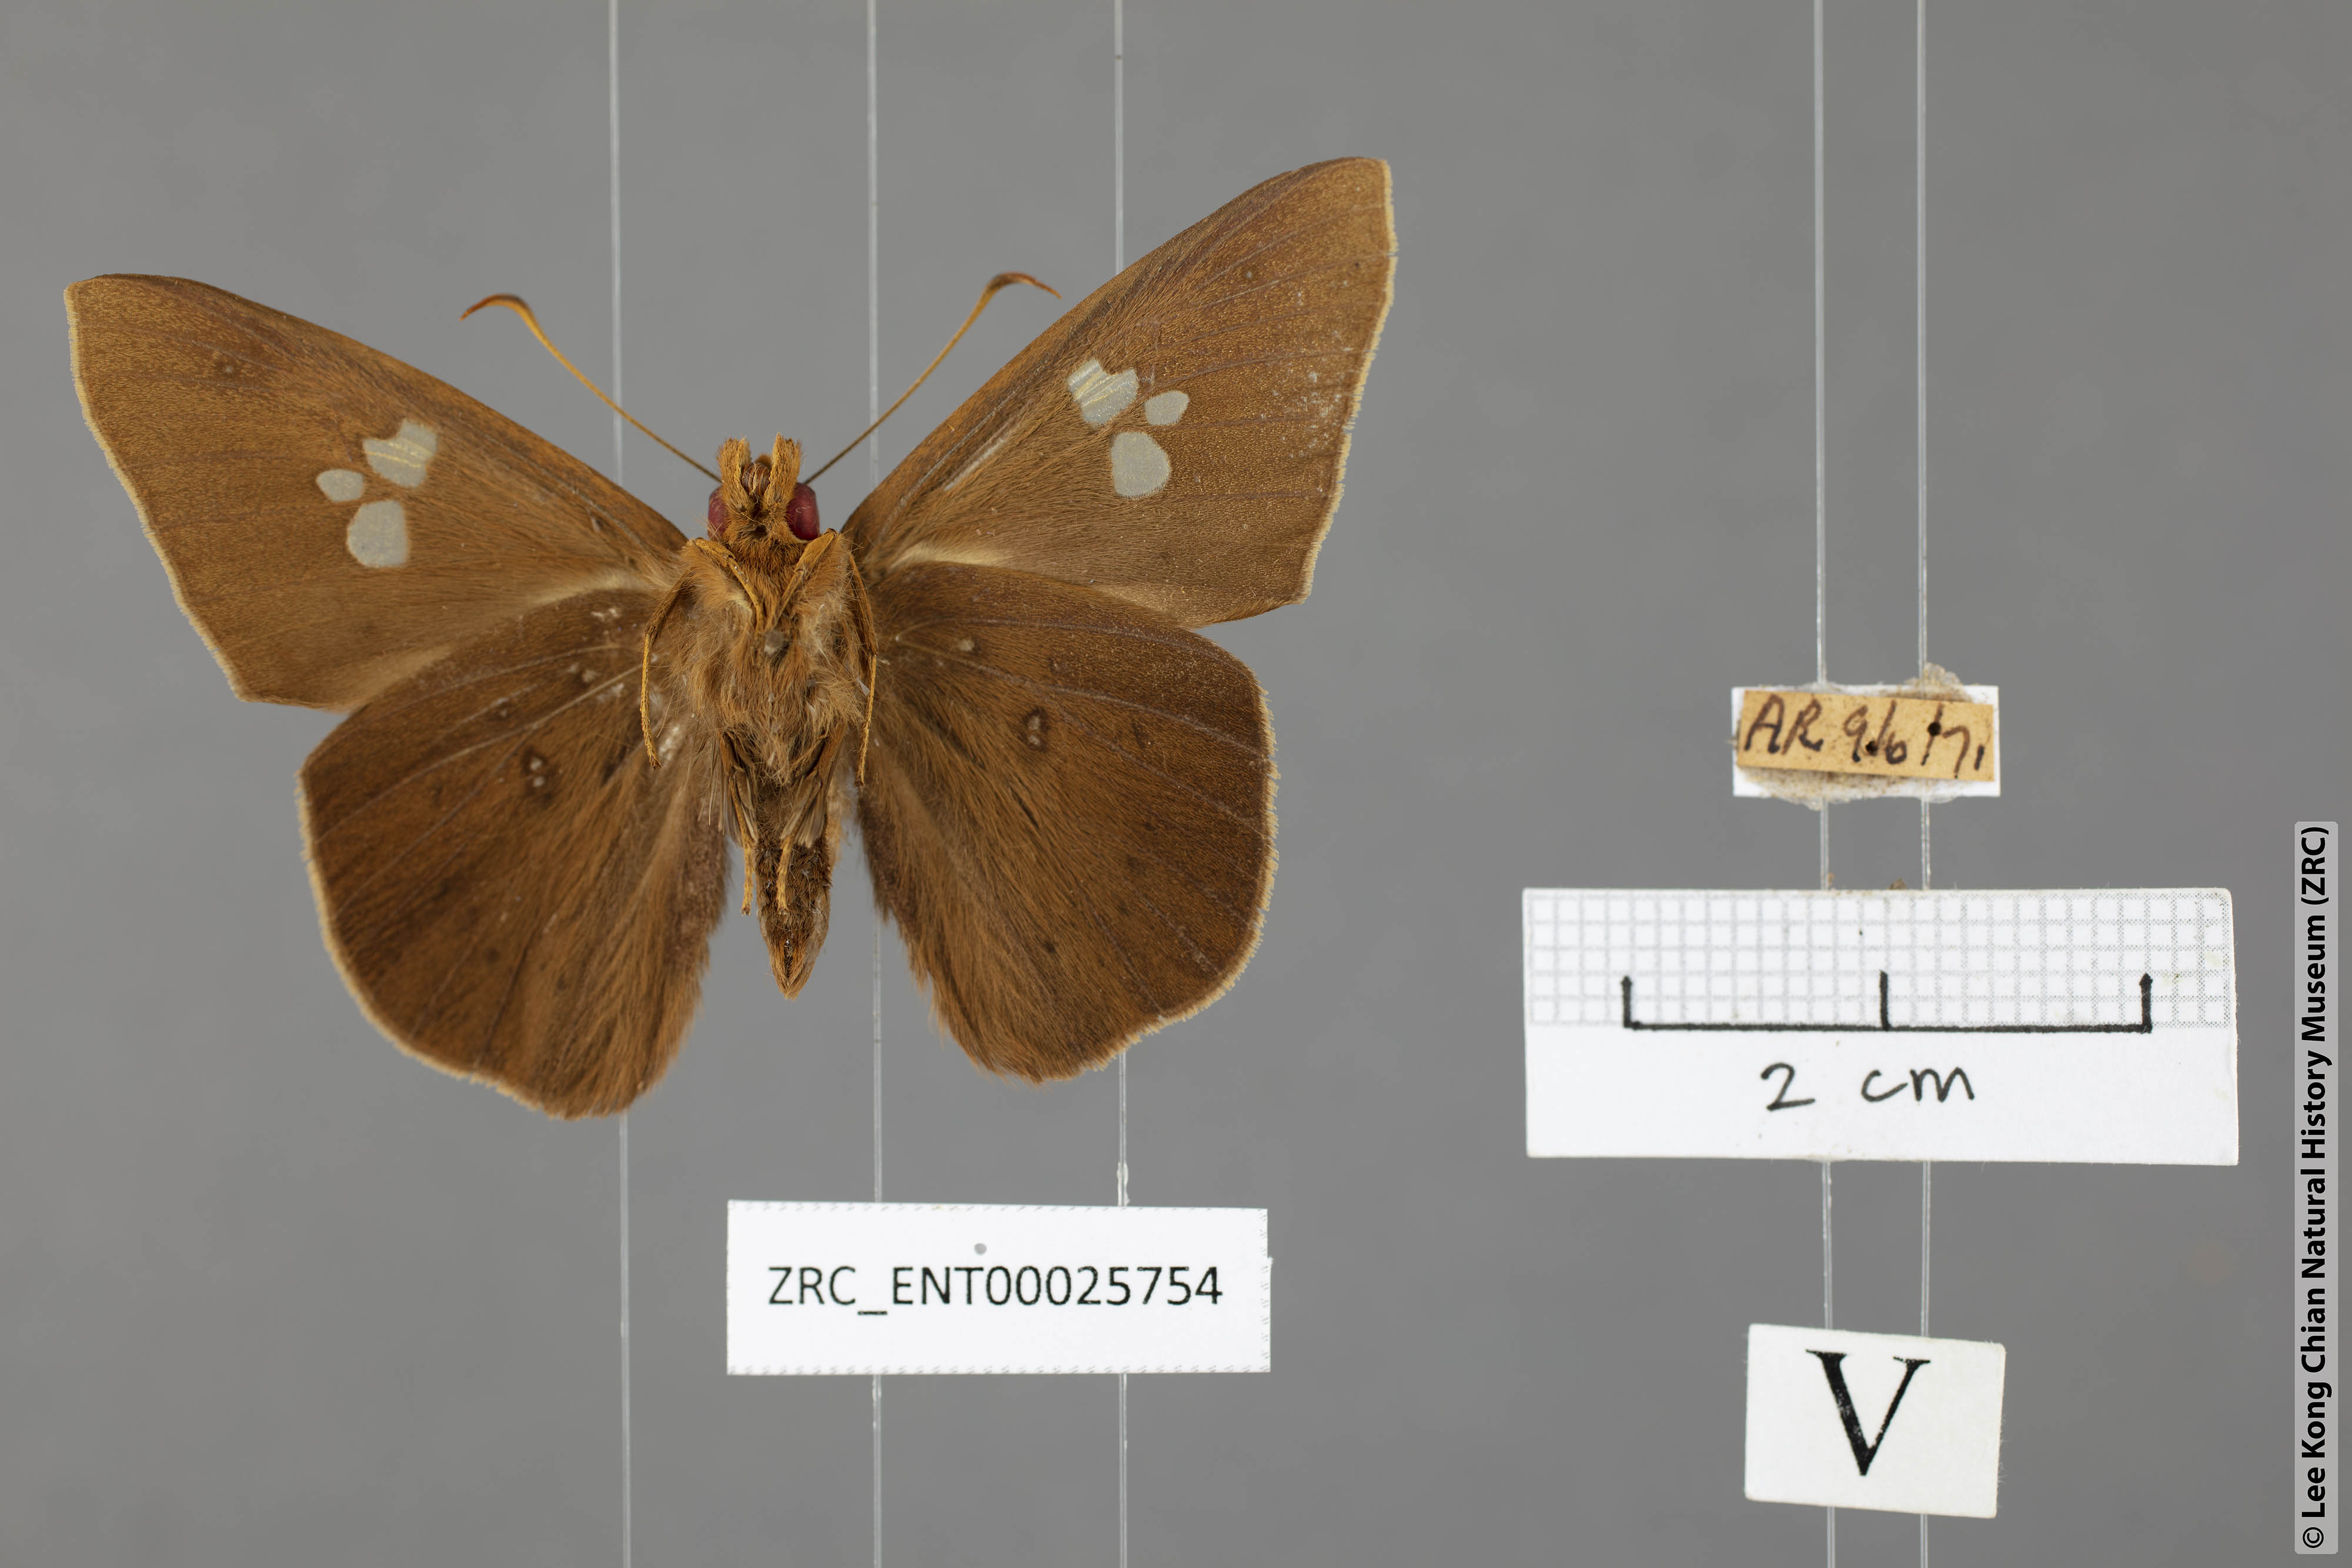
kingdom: Animalia
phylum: Arthropoda
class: Insecta
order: Lepidoptera
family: Hesperiidae
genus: Capila
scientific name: Capila phanaeus
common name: Fulvous dawnfly
